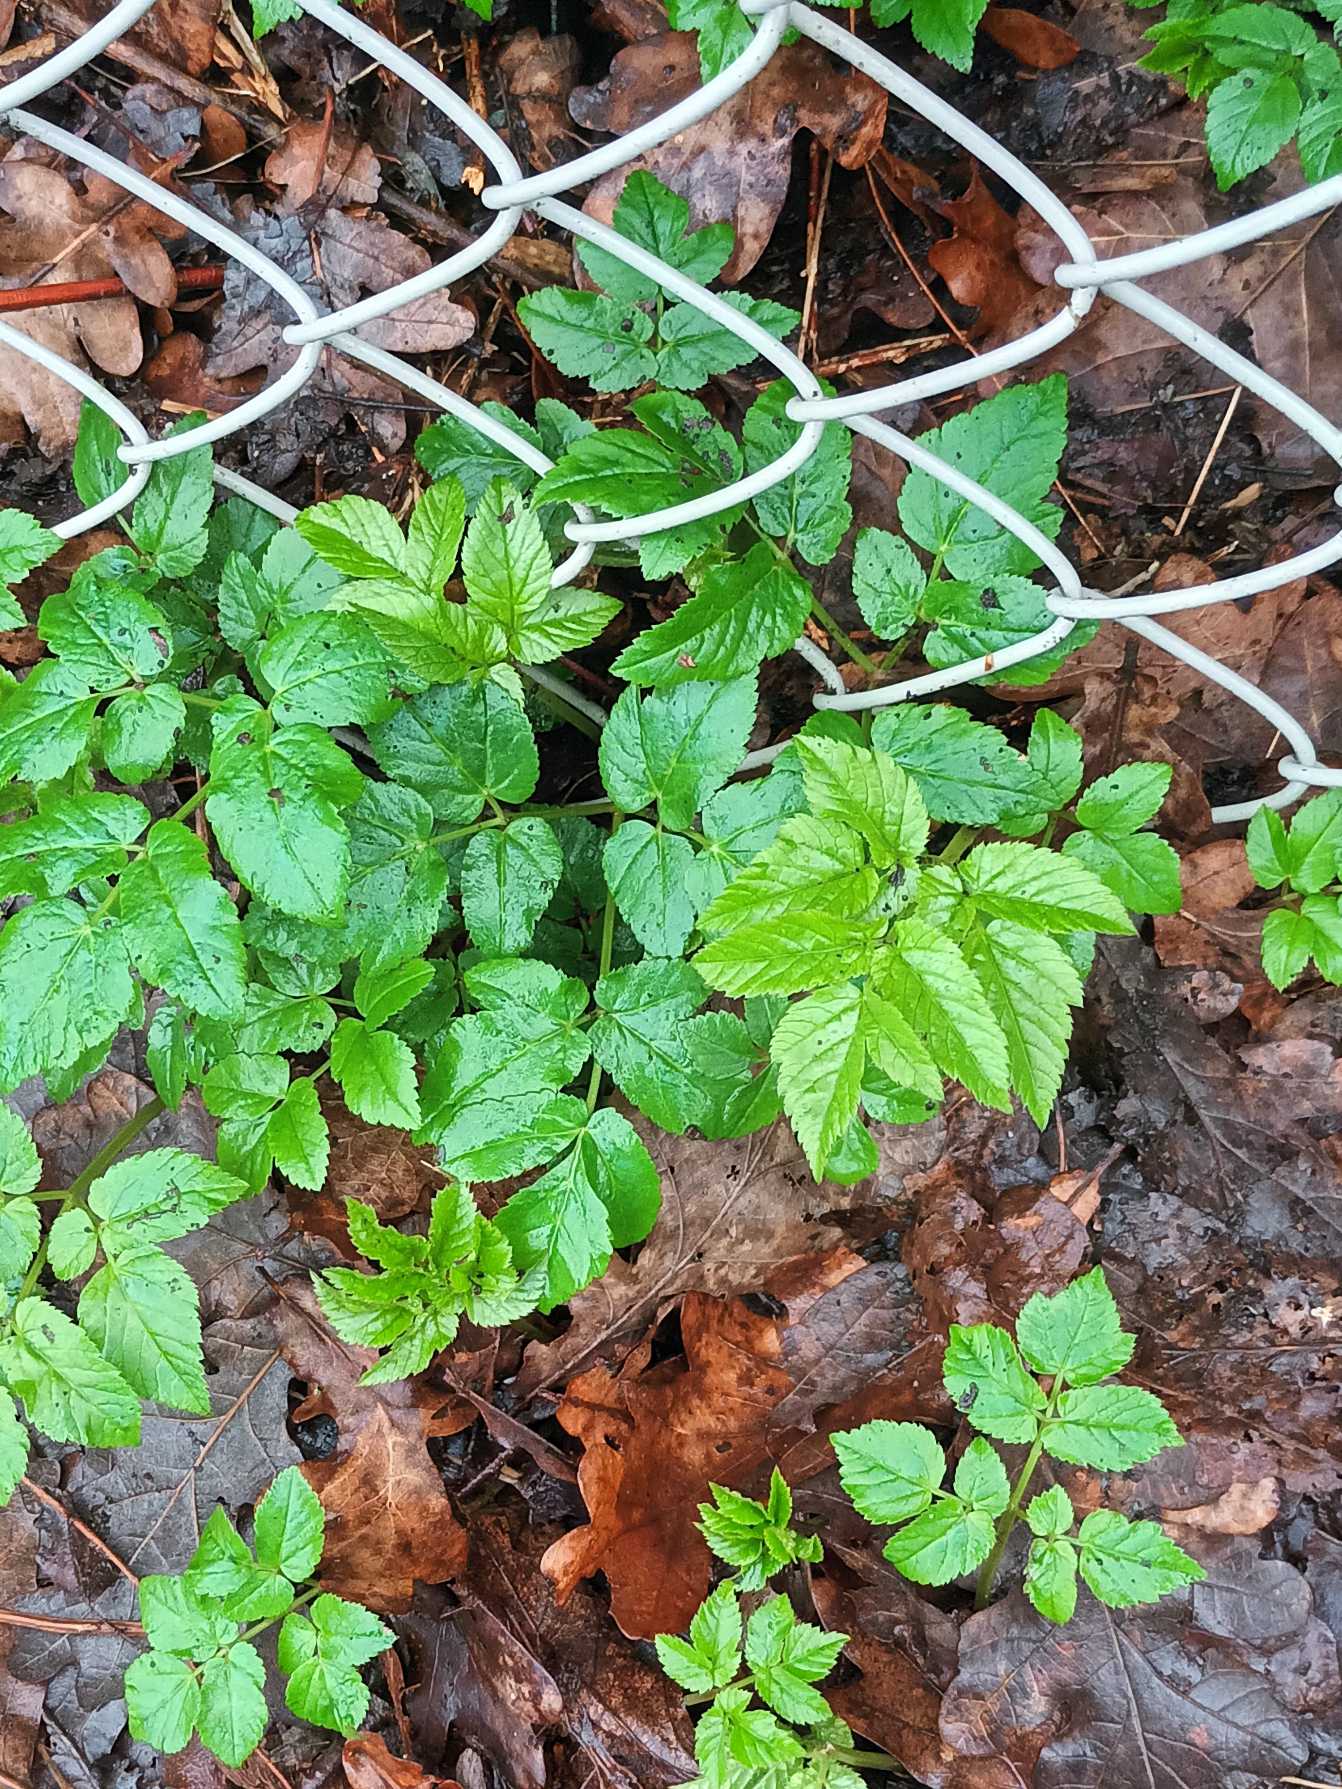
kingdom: Plantae
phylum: Tracheophyta
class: Magnoliopsida
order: Apiales
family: Apiaceae
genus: Aegopodium
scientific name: Aegopodium podagraria
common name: Skvalderkål
